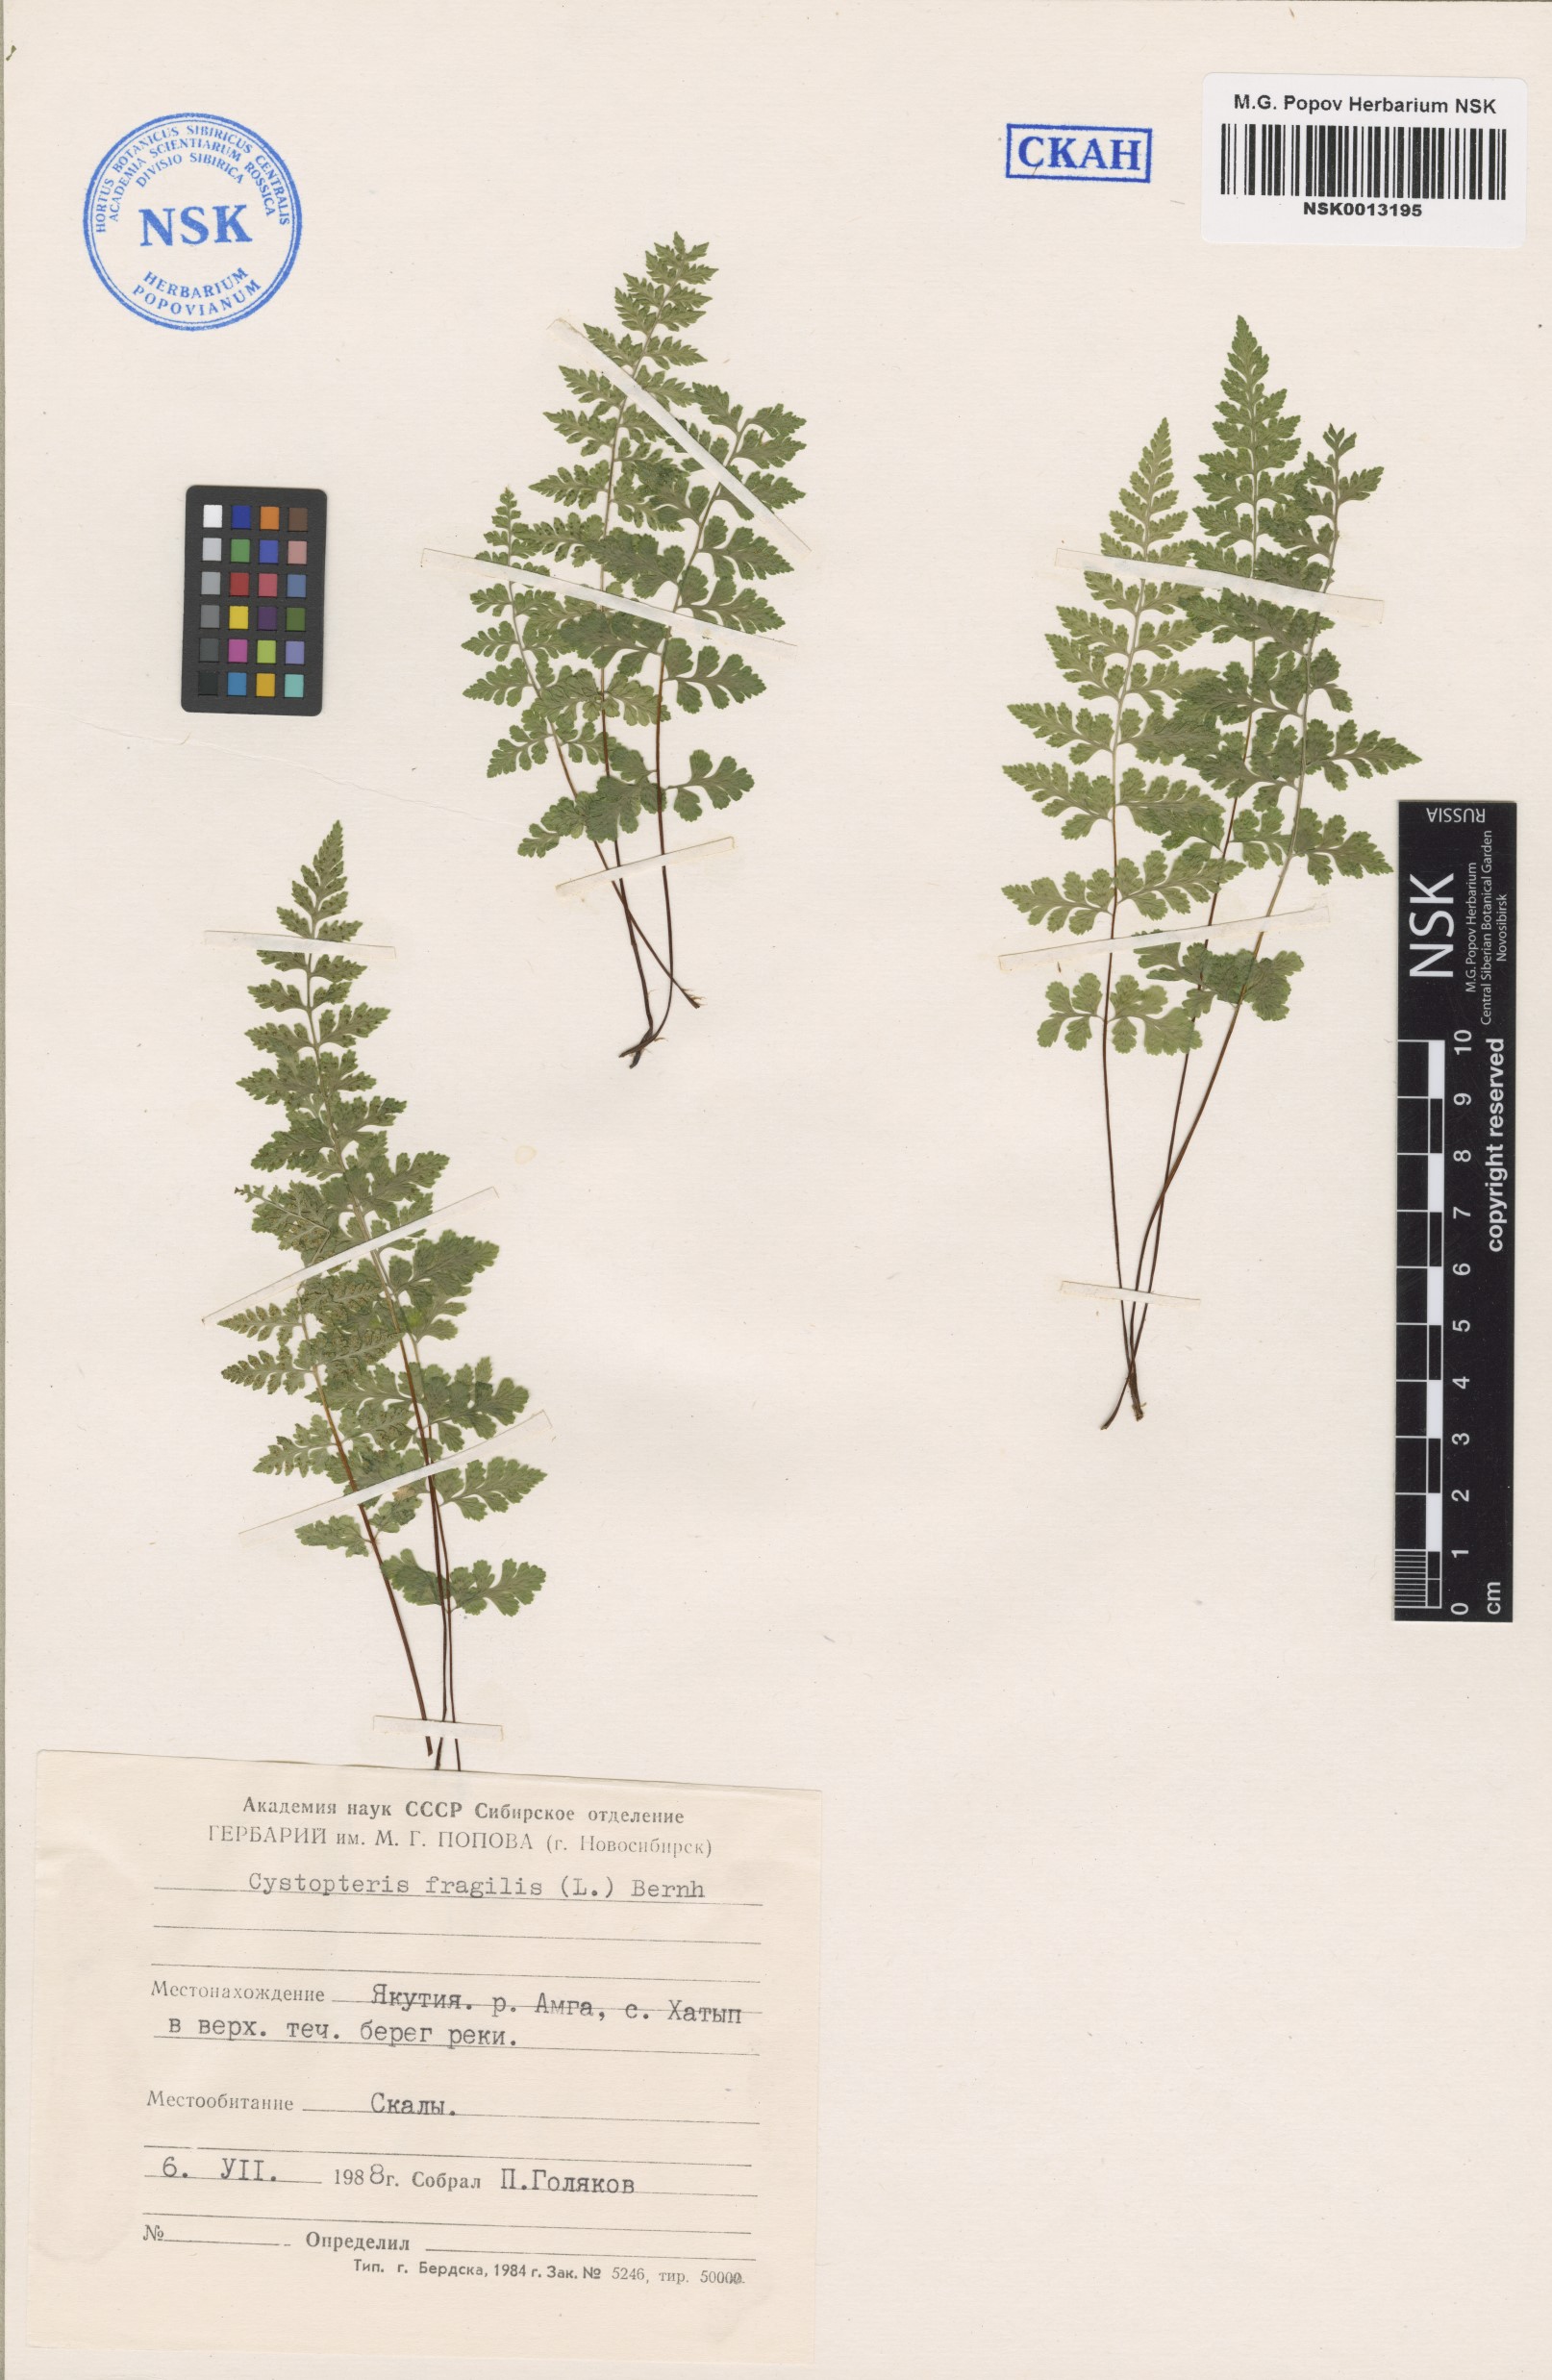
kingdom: Plantae
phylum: Tracheophyta
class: Polypodiopsida
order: Polypodiales
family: Cystopteridaceae
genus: Cystopteris
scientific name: Cystopteris fragilis
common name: Brittle bladder fern
